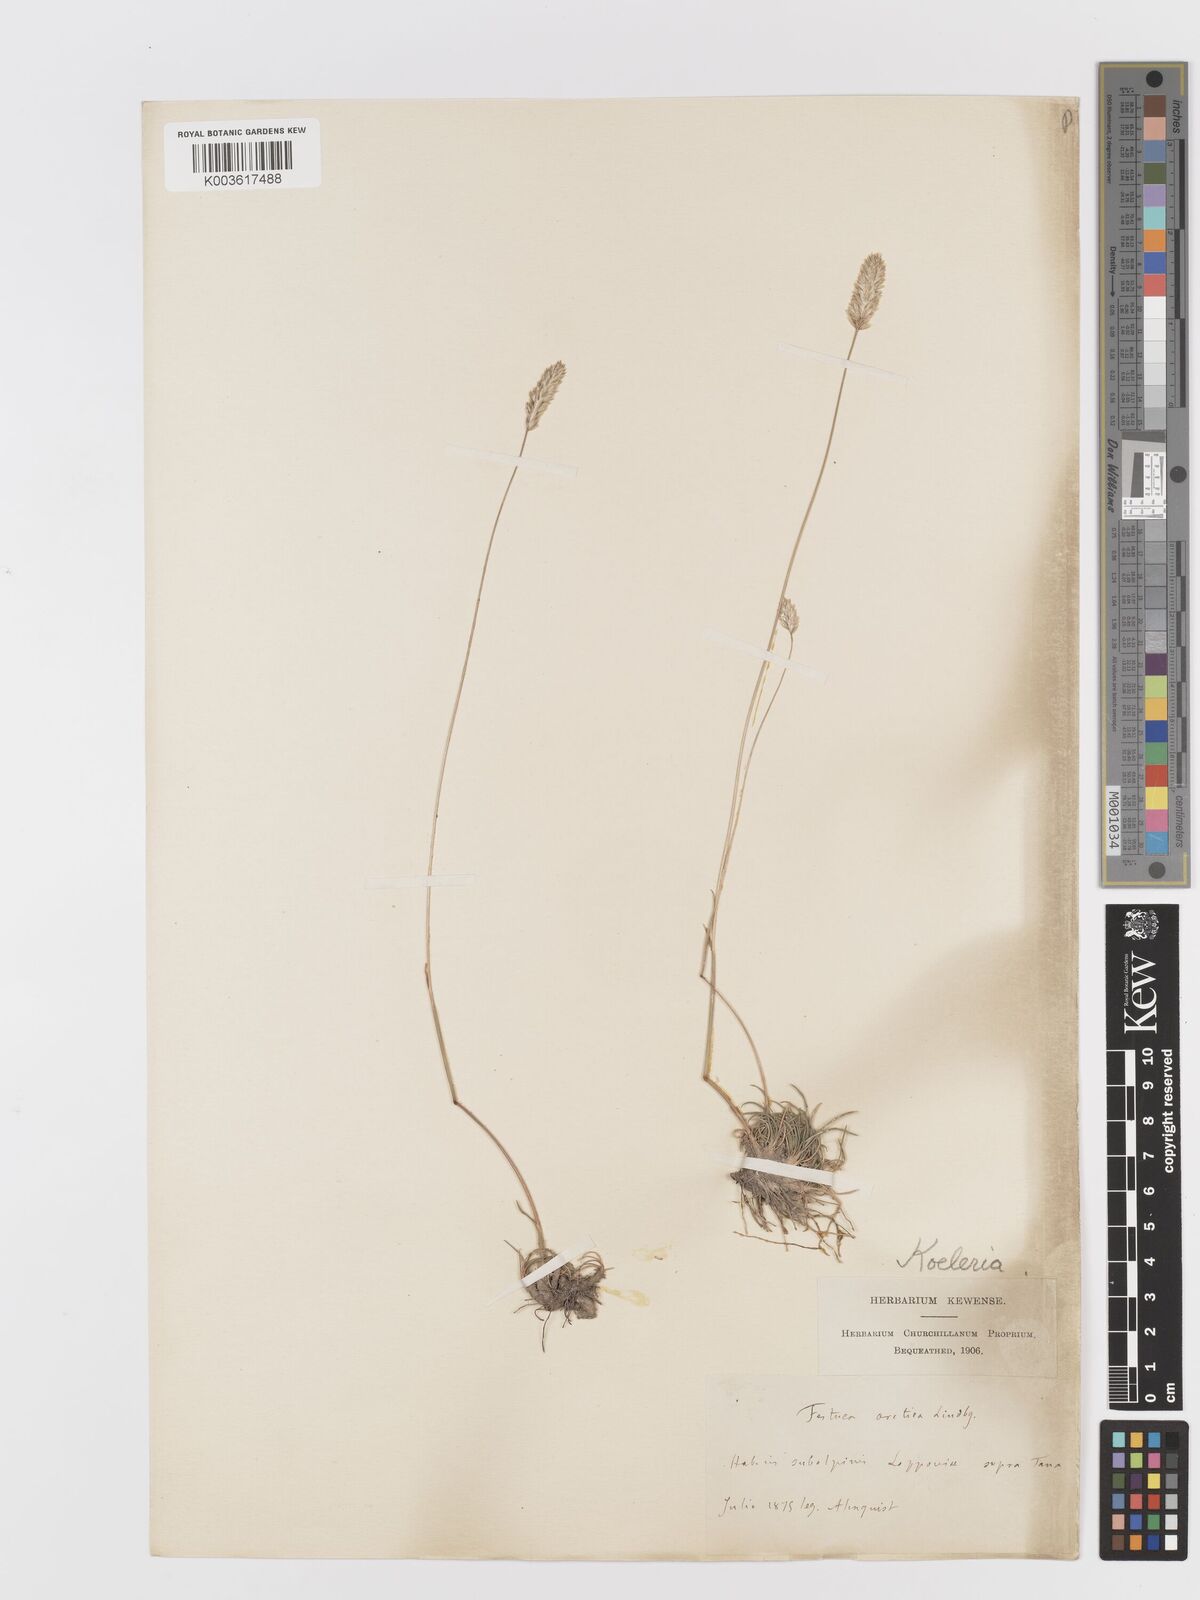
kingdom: Plantae
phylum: Tracheophyta
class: Liliopsida
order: Poales
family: Poaceae
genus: Koeleria
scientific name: Koeleria
